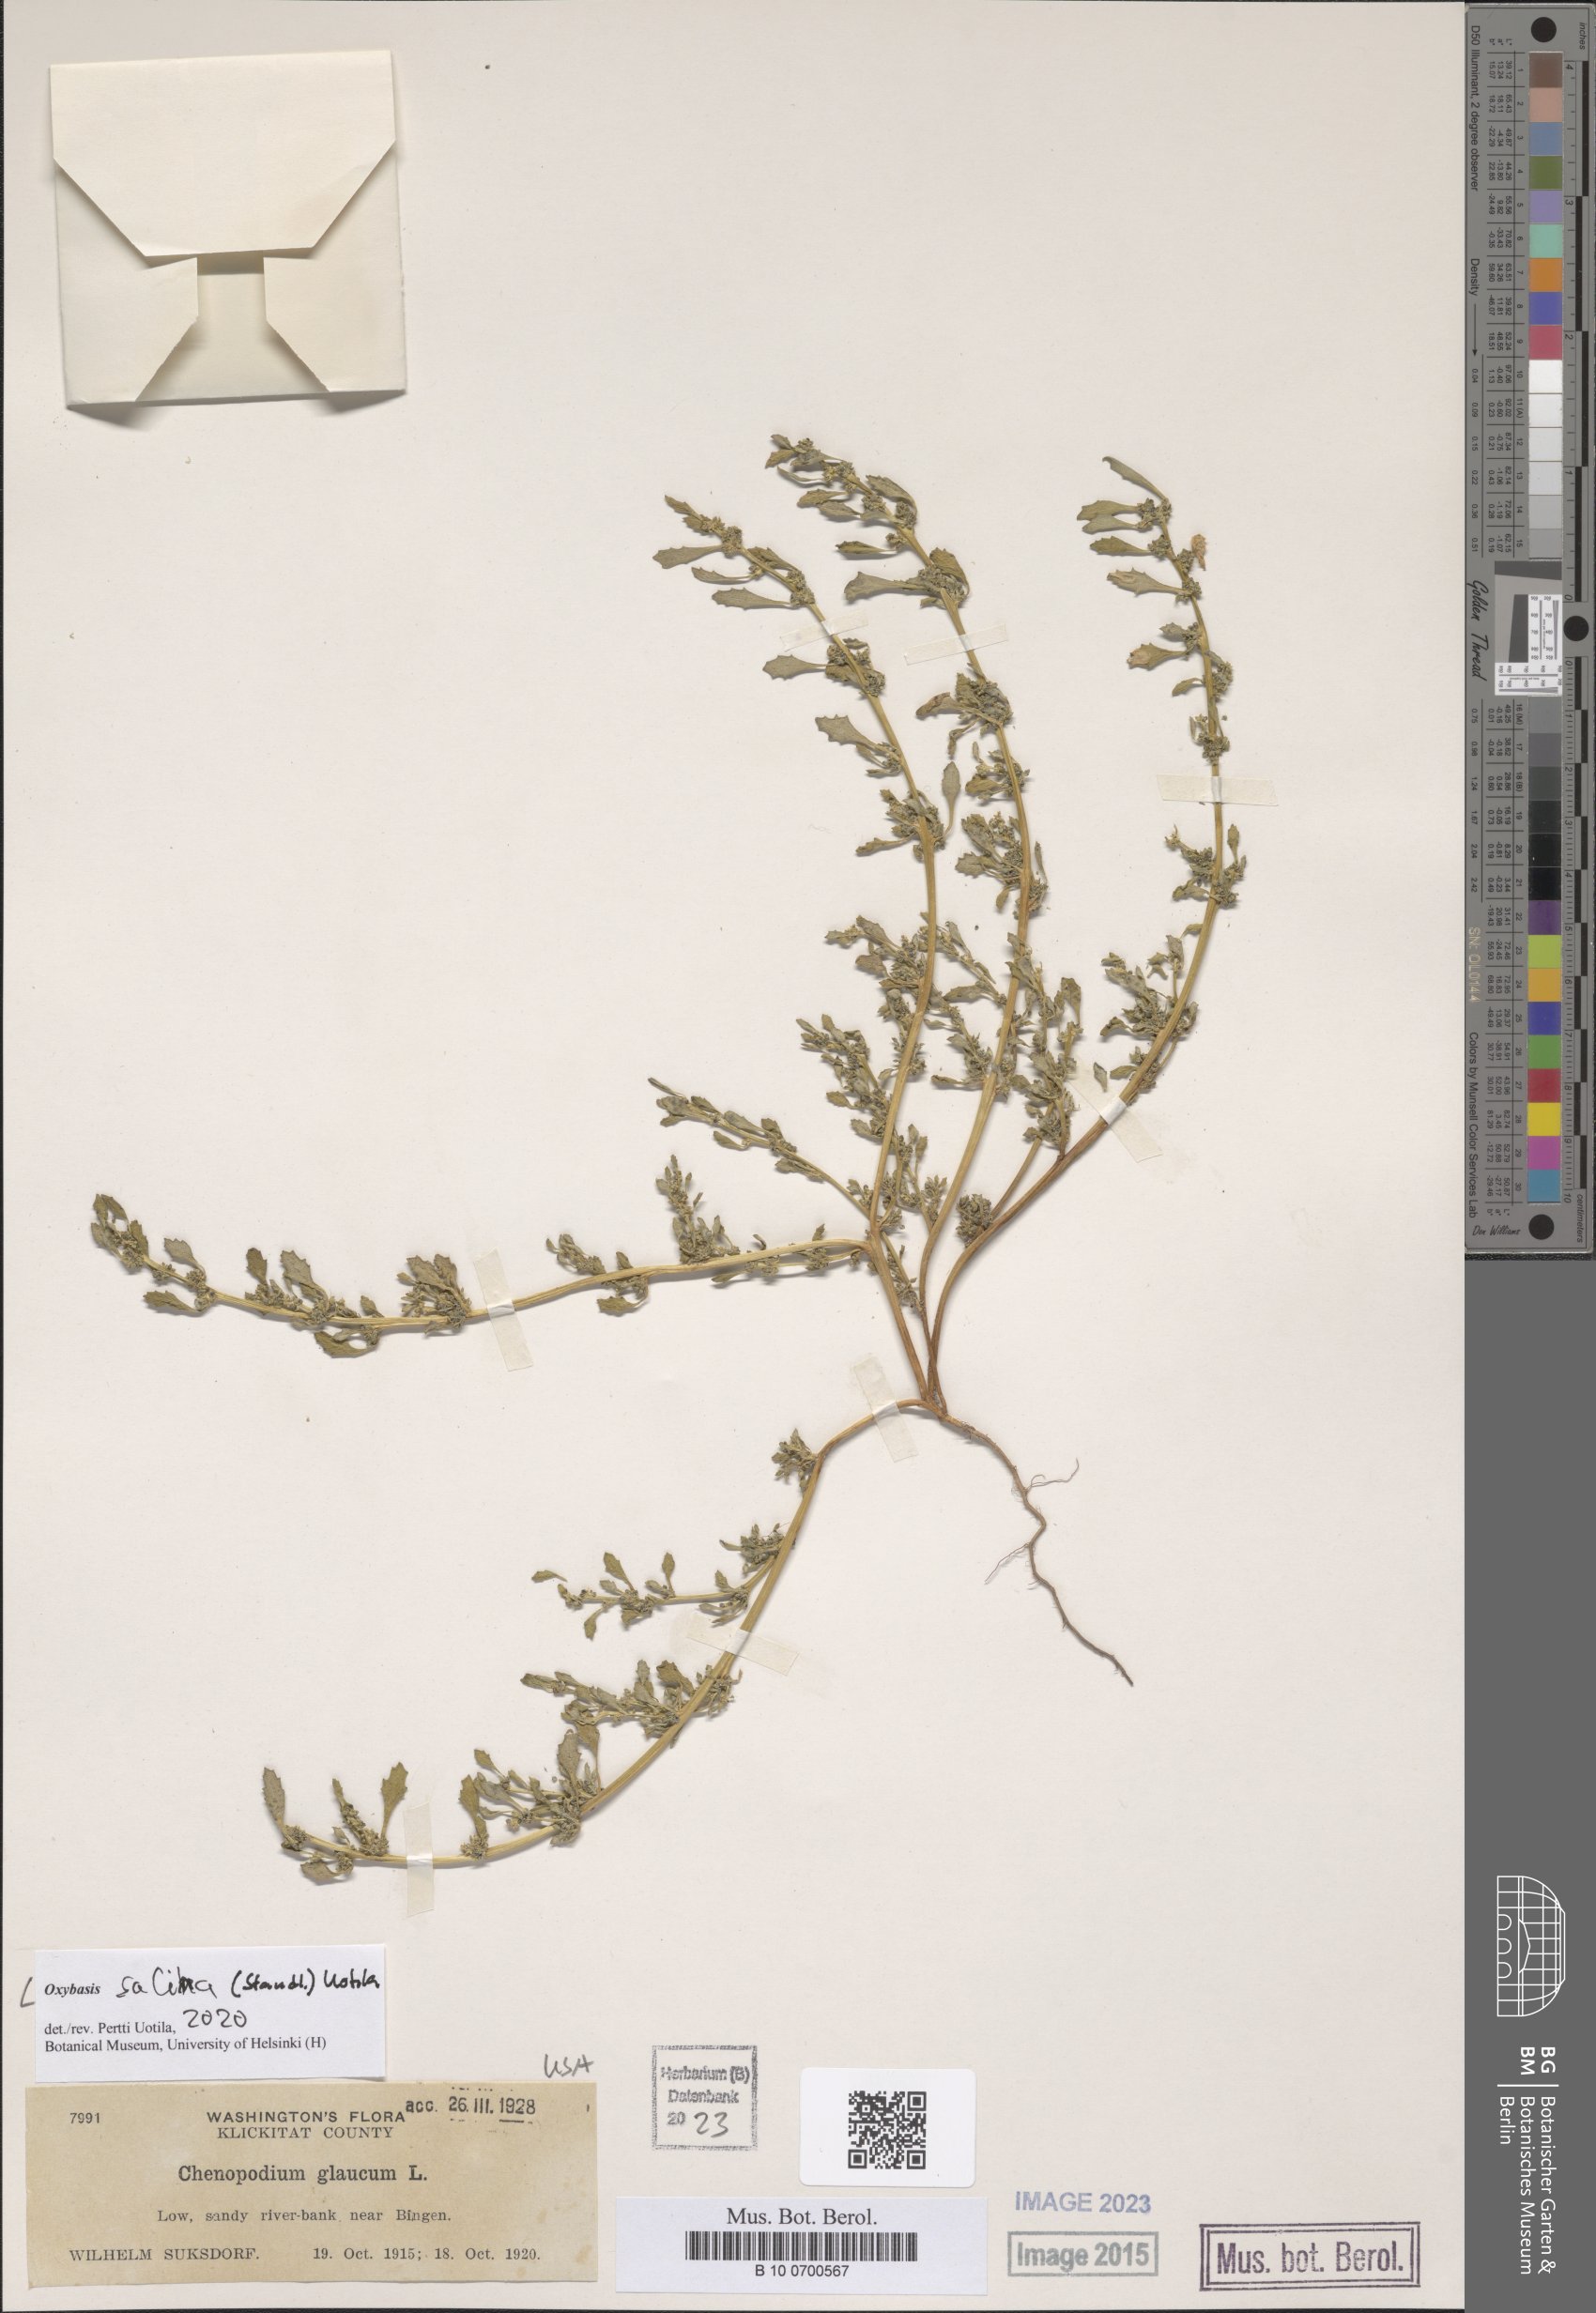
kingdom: Plantae
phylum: Tracheophyta
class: Magnoliopsida
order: Caryophyllales
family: Amaranthaceae
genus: Oxybasis
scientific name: Oxybasis salina
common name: Rocky mountain goosefoot
